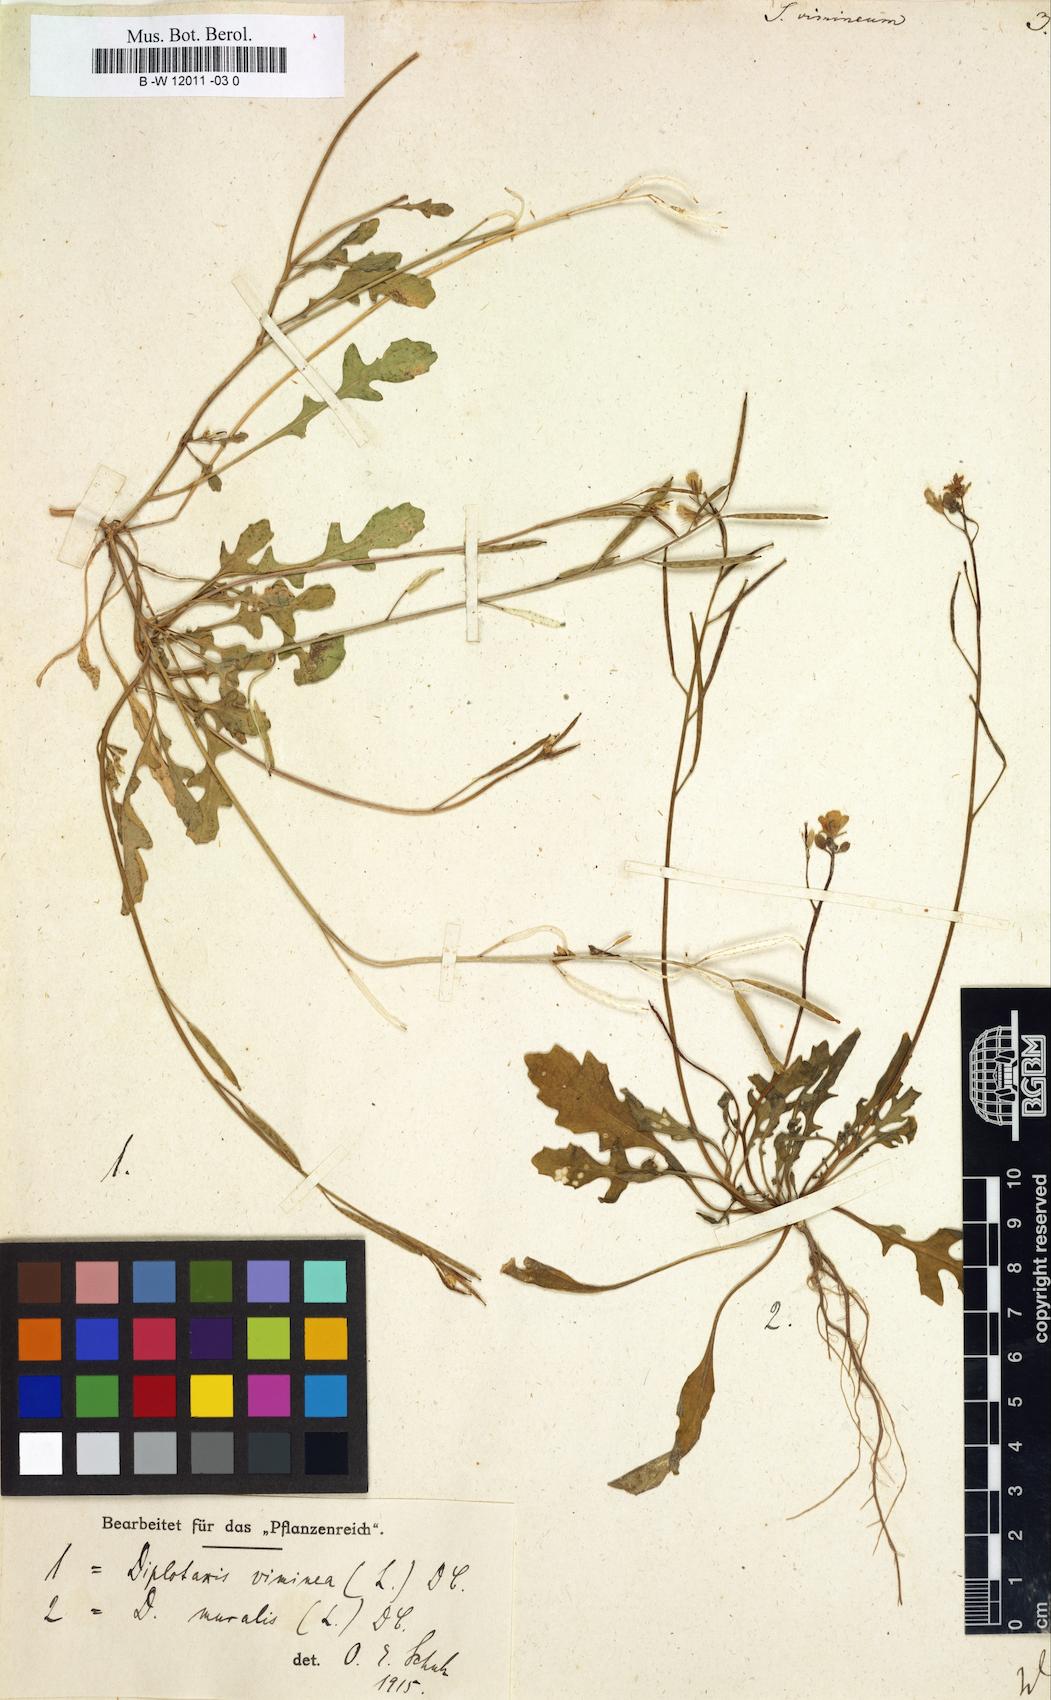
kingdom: Plantae
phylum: Tracheophyta
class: Magnoliopsida
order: Brassicales
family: Brassicaceae
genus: Sisymbrium
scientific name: Sisymbrium vimineum
